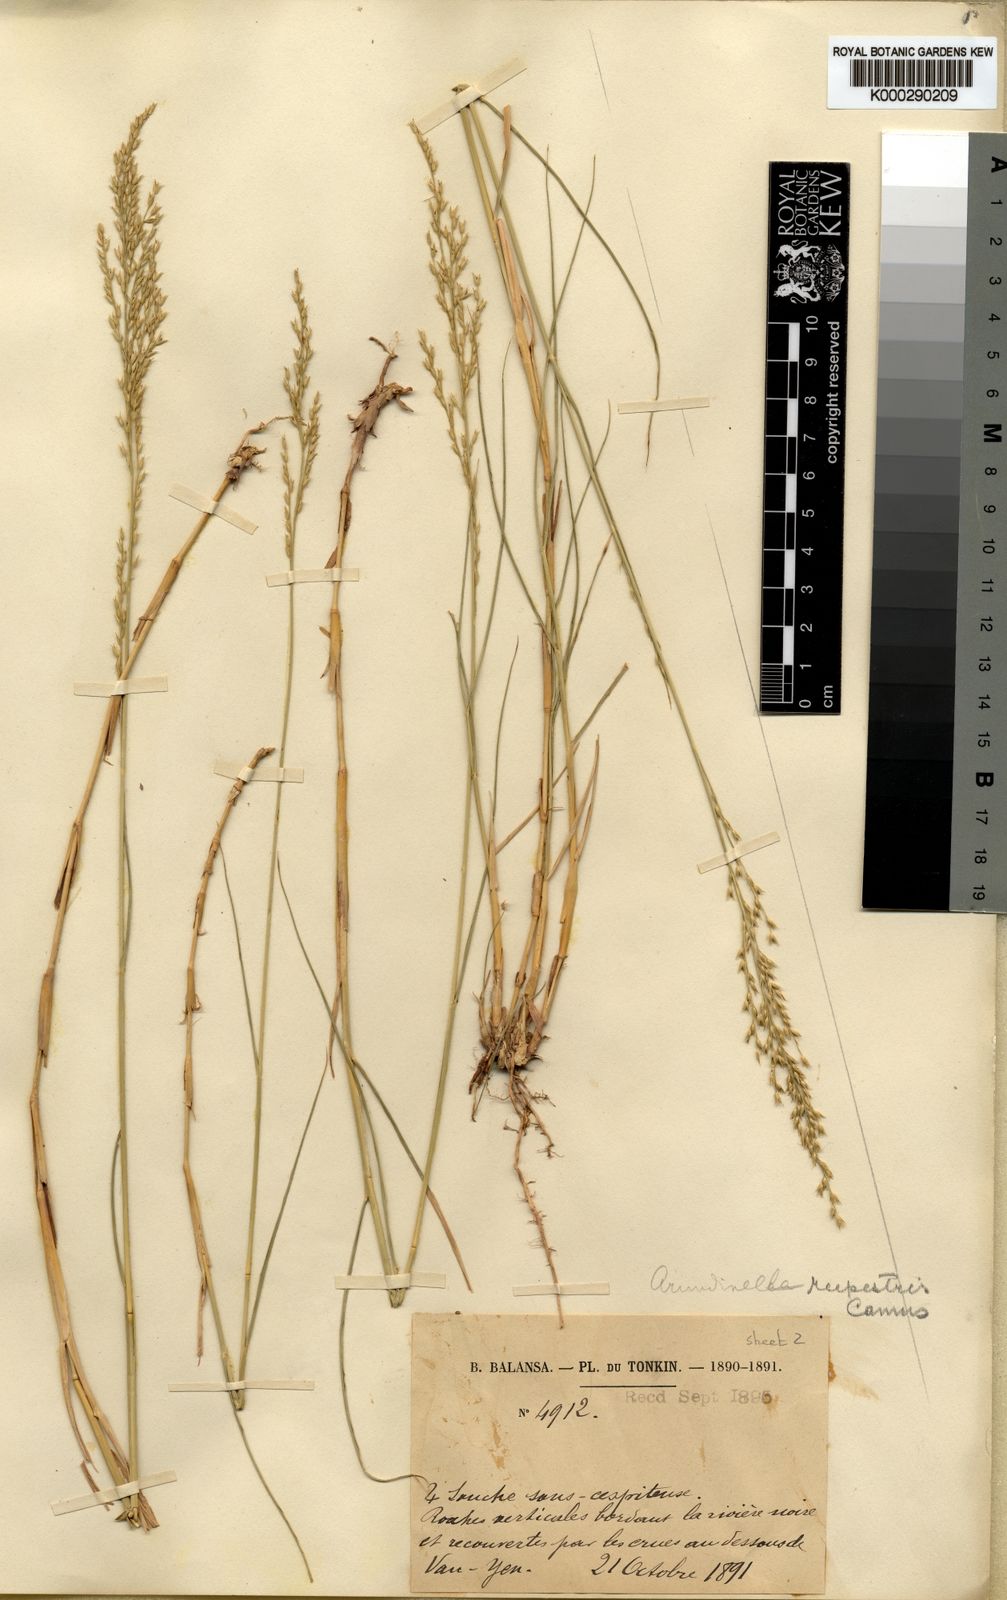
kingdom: Plantae
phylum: Tracheophyta
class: Liliopsida
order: Poales
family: Poaceae
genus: Arundinella
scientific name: Arundinella rupestris
